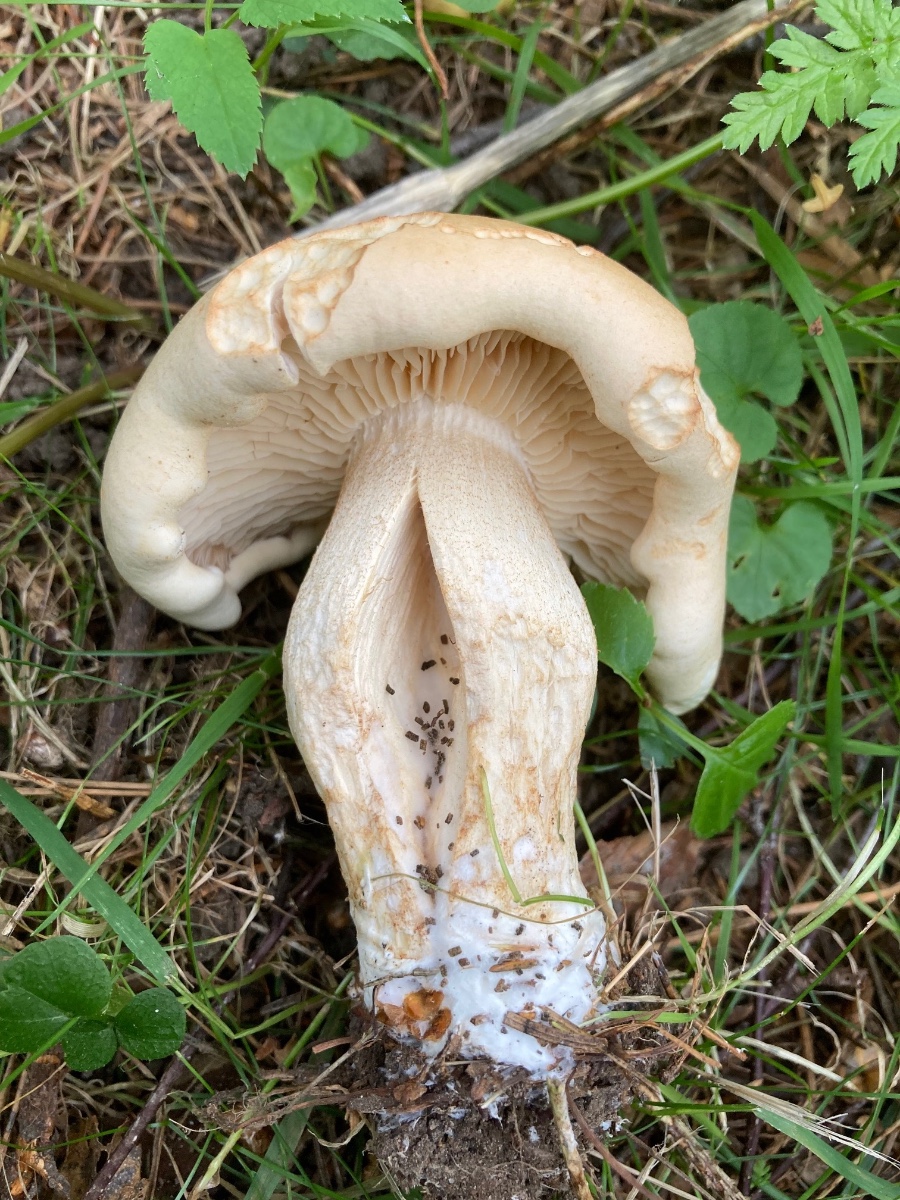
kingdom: Fungi
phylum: Basidiomycota
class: Agaricomycetes
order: Agaricales
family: Tricholomataceae
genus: Tricholoma
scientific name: Tricholoma
